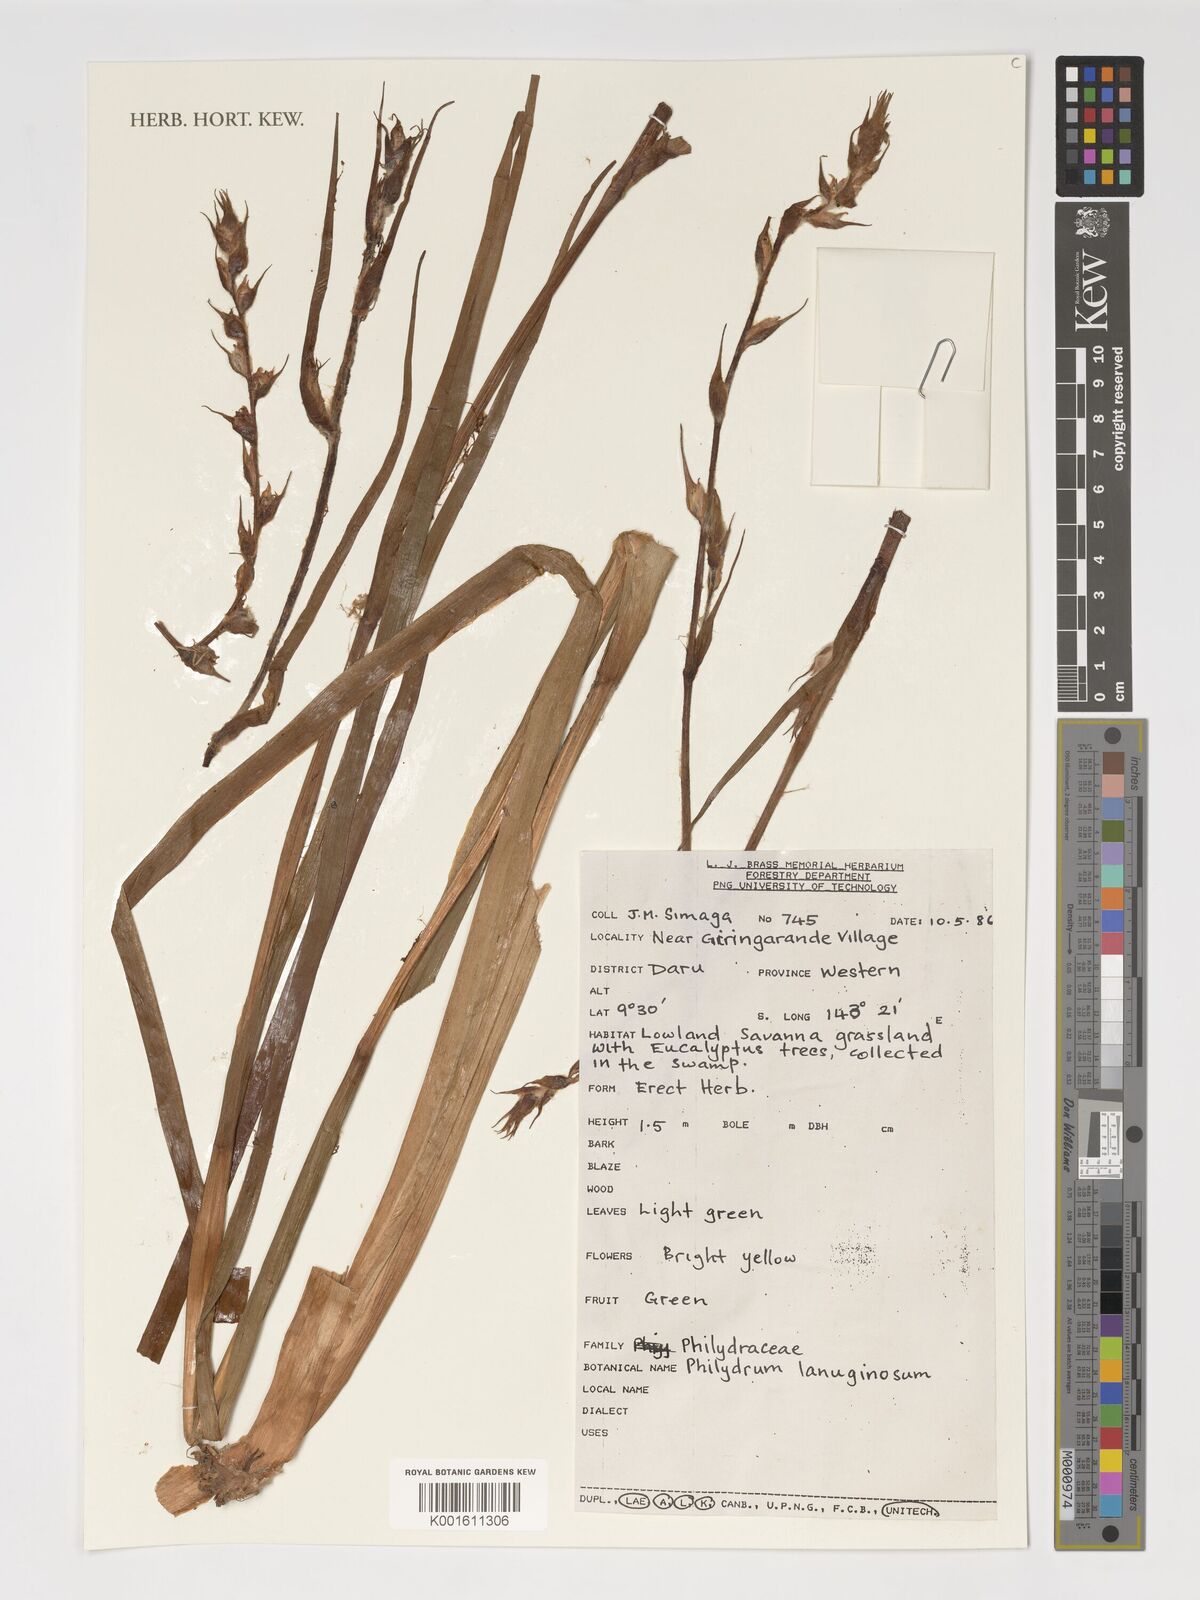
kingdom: Plantae
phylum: Tracheophyta
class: Liliopsida
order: Commelinales
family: Philydraceae
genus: Philydrum
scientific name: Philydrum lanuginosum
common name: Woolly frog's mouth
